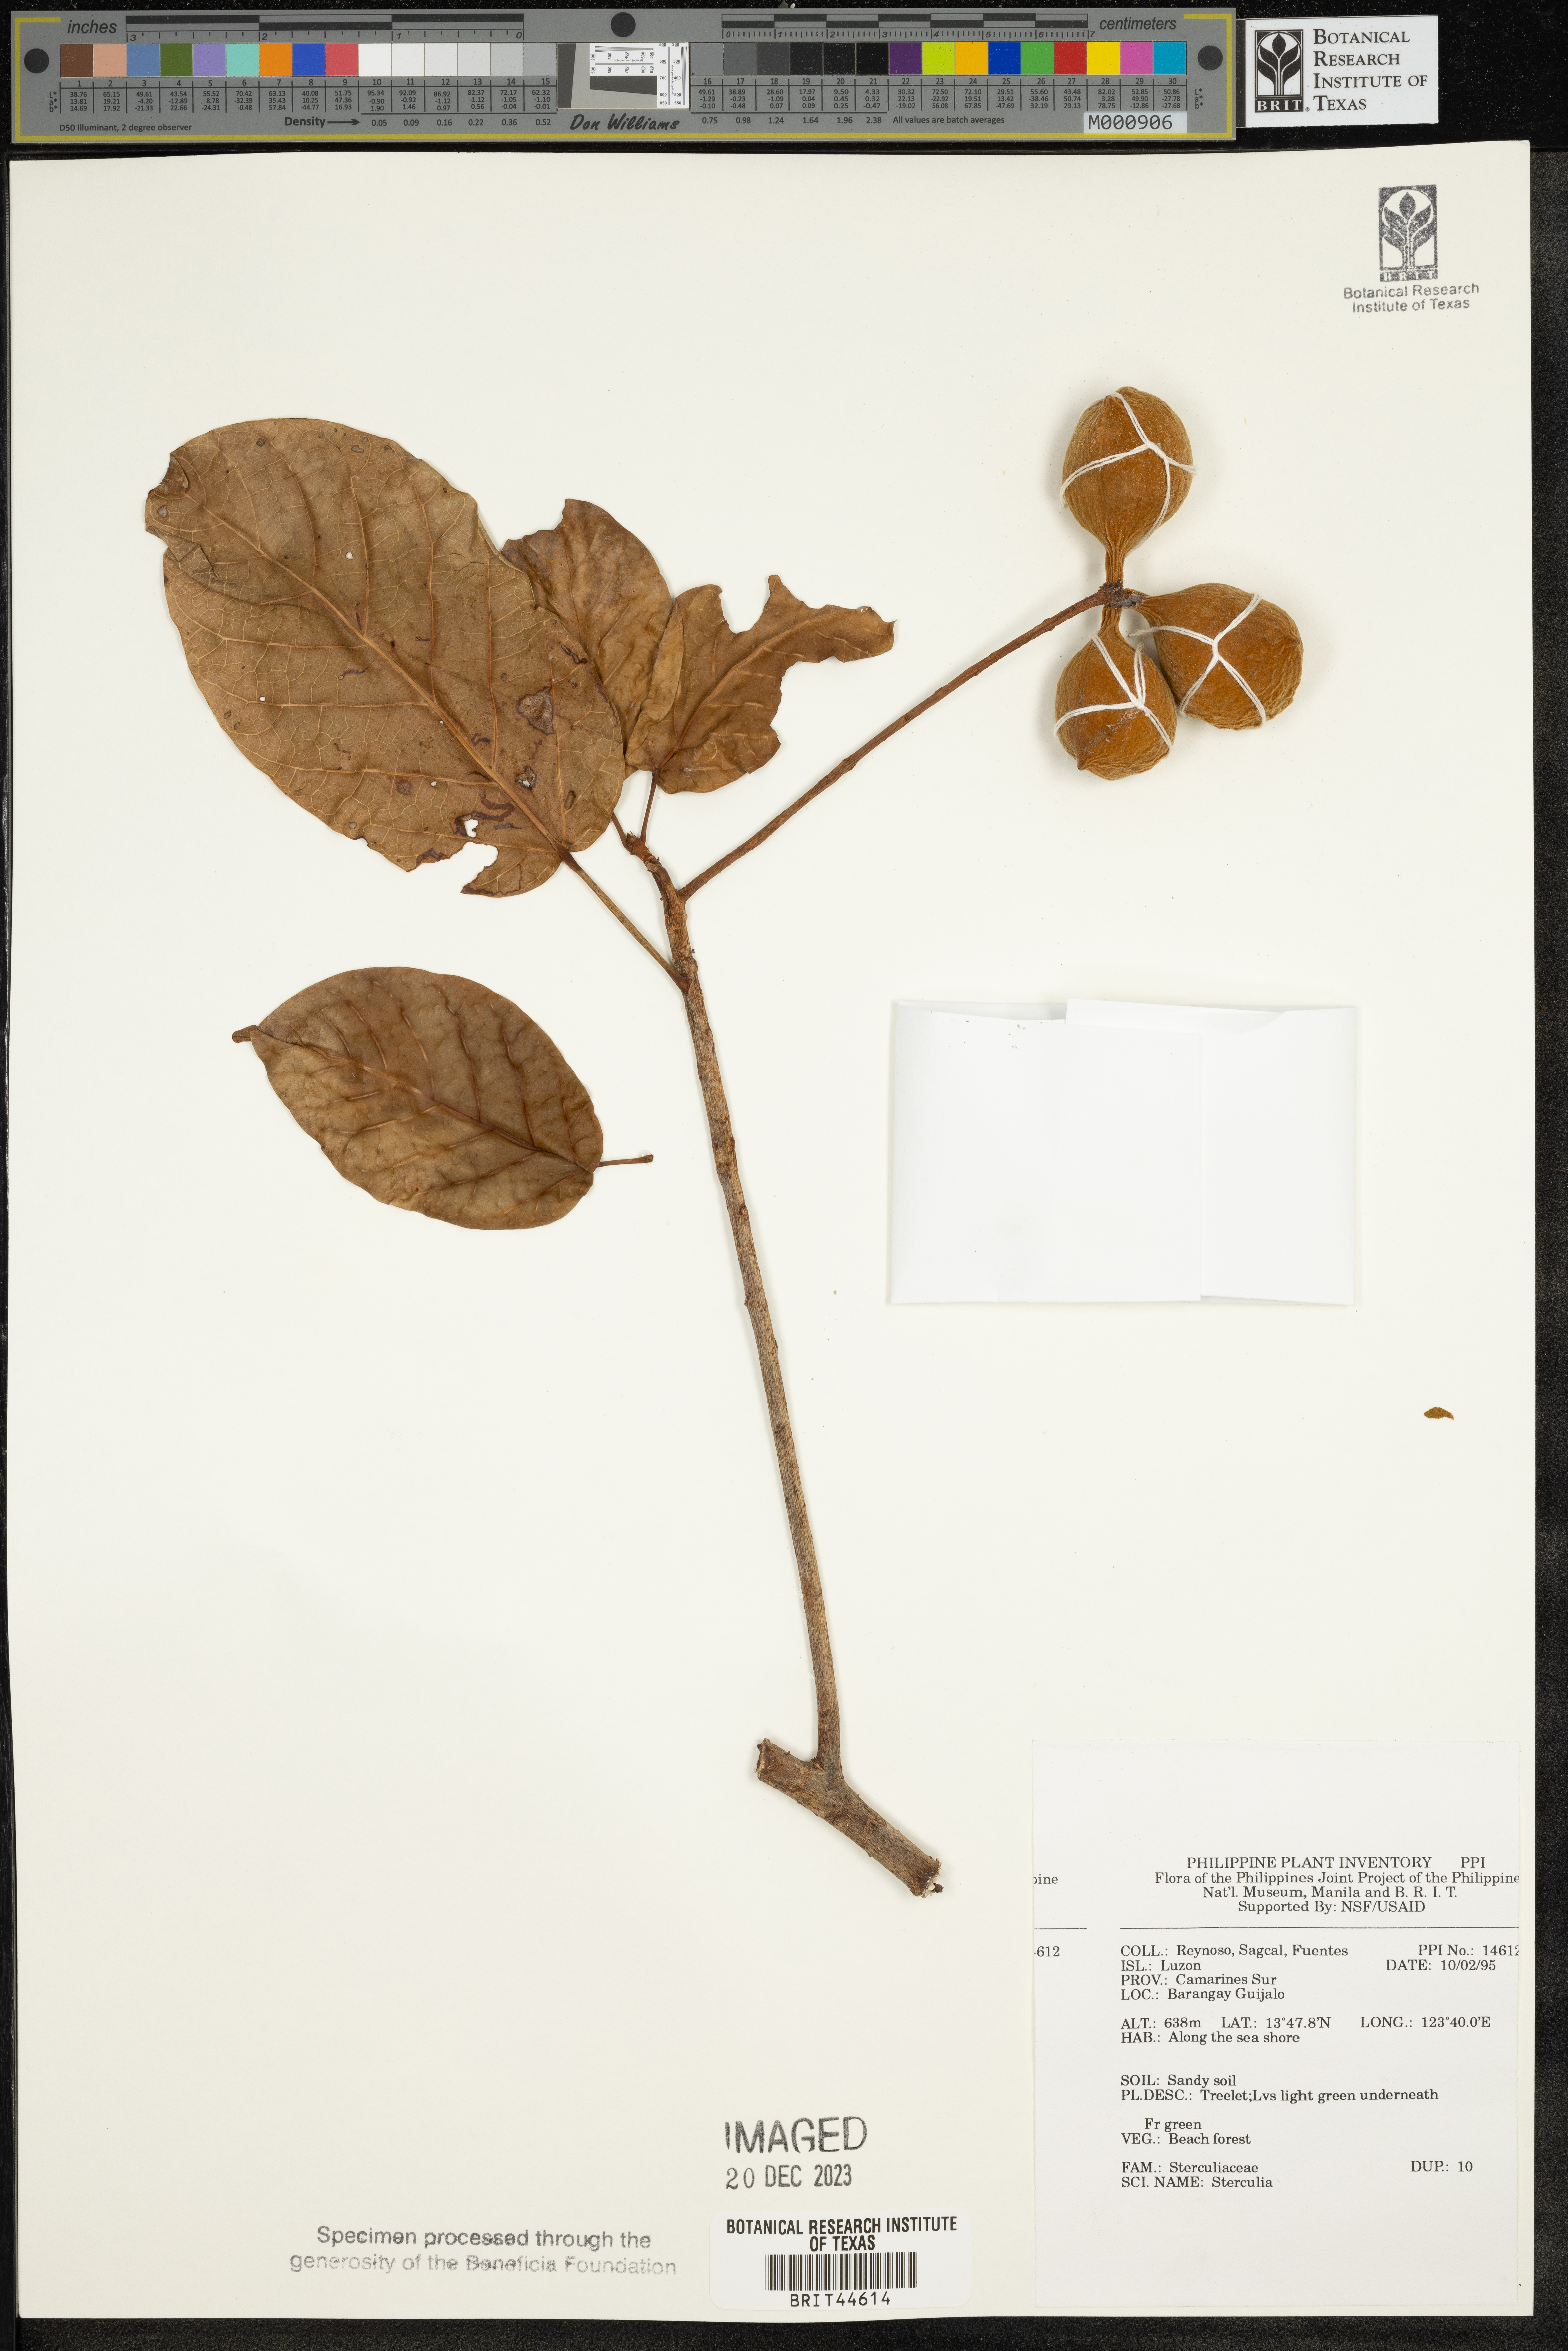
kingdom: Plantae
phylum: Tracheophyta
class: Magnoliopsida
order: Malvales
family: Malvaceae
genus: Sterculia
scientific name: Sterculia
